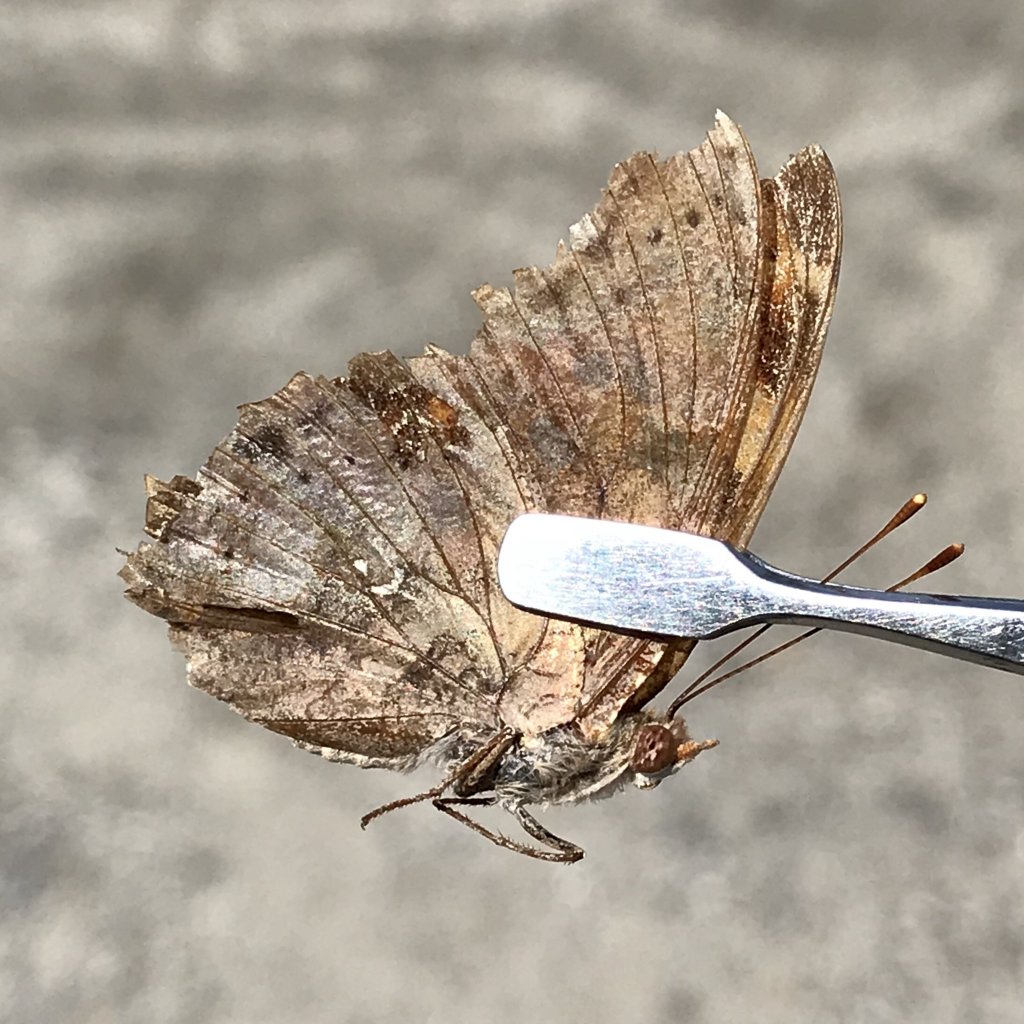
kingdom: Animalia
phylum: Arthropoda
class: Insecta
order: Lepidoptera
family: Nymphalidae
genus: Polygonia
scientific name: Polygonia interrogationis
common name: Question Mark
